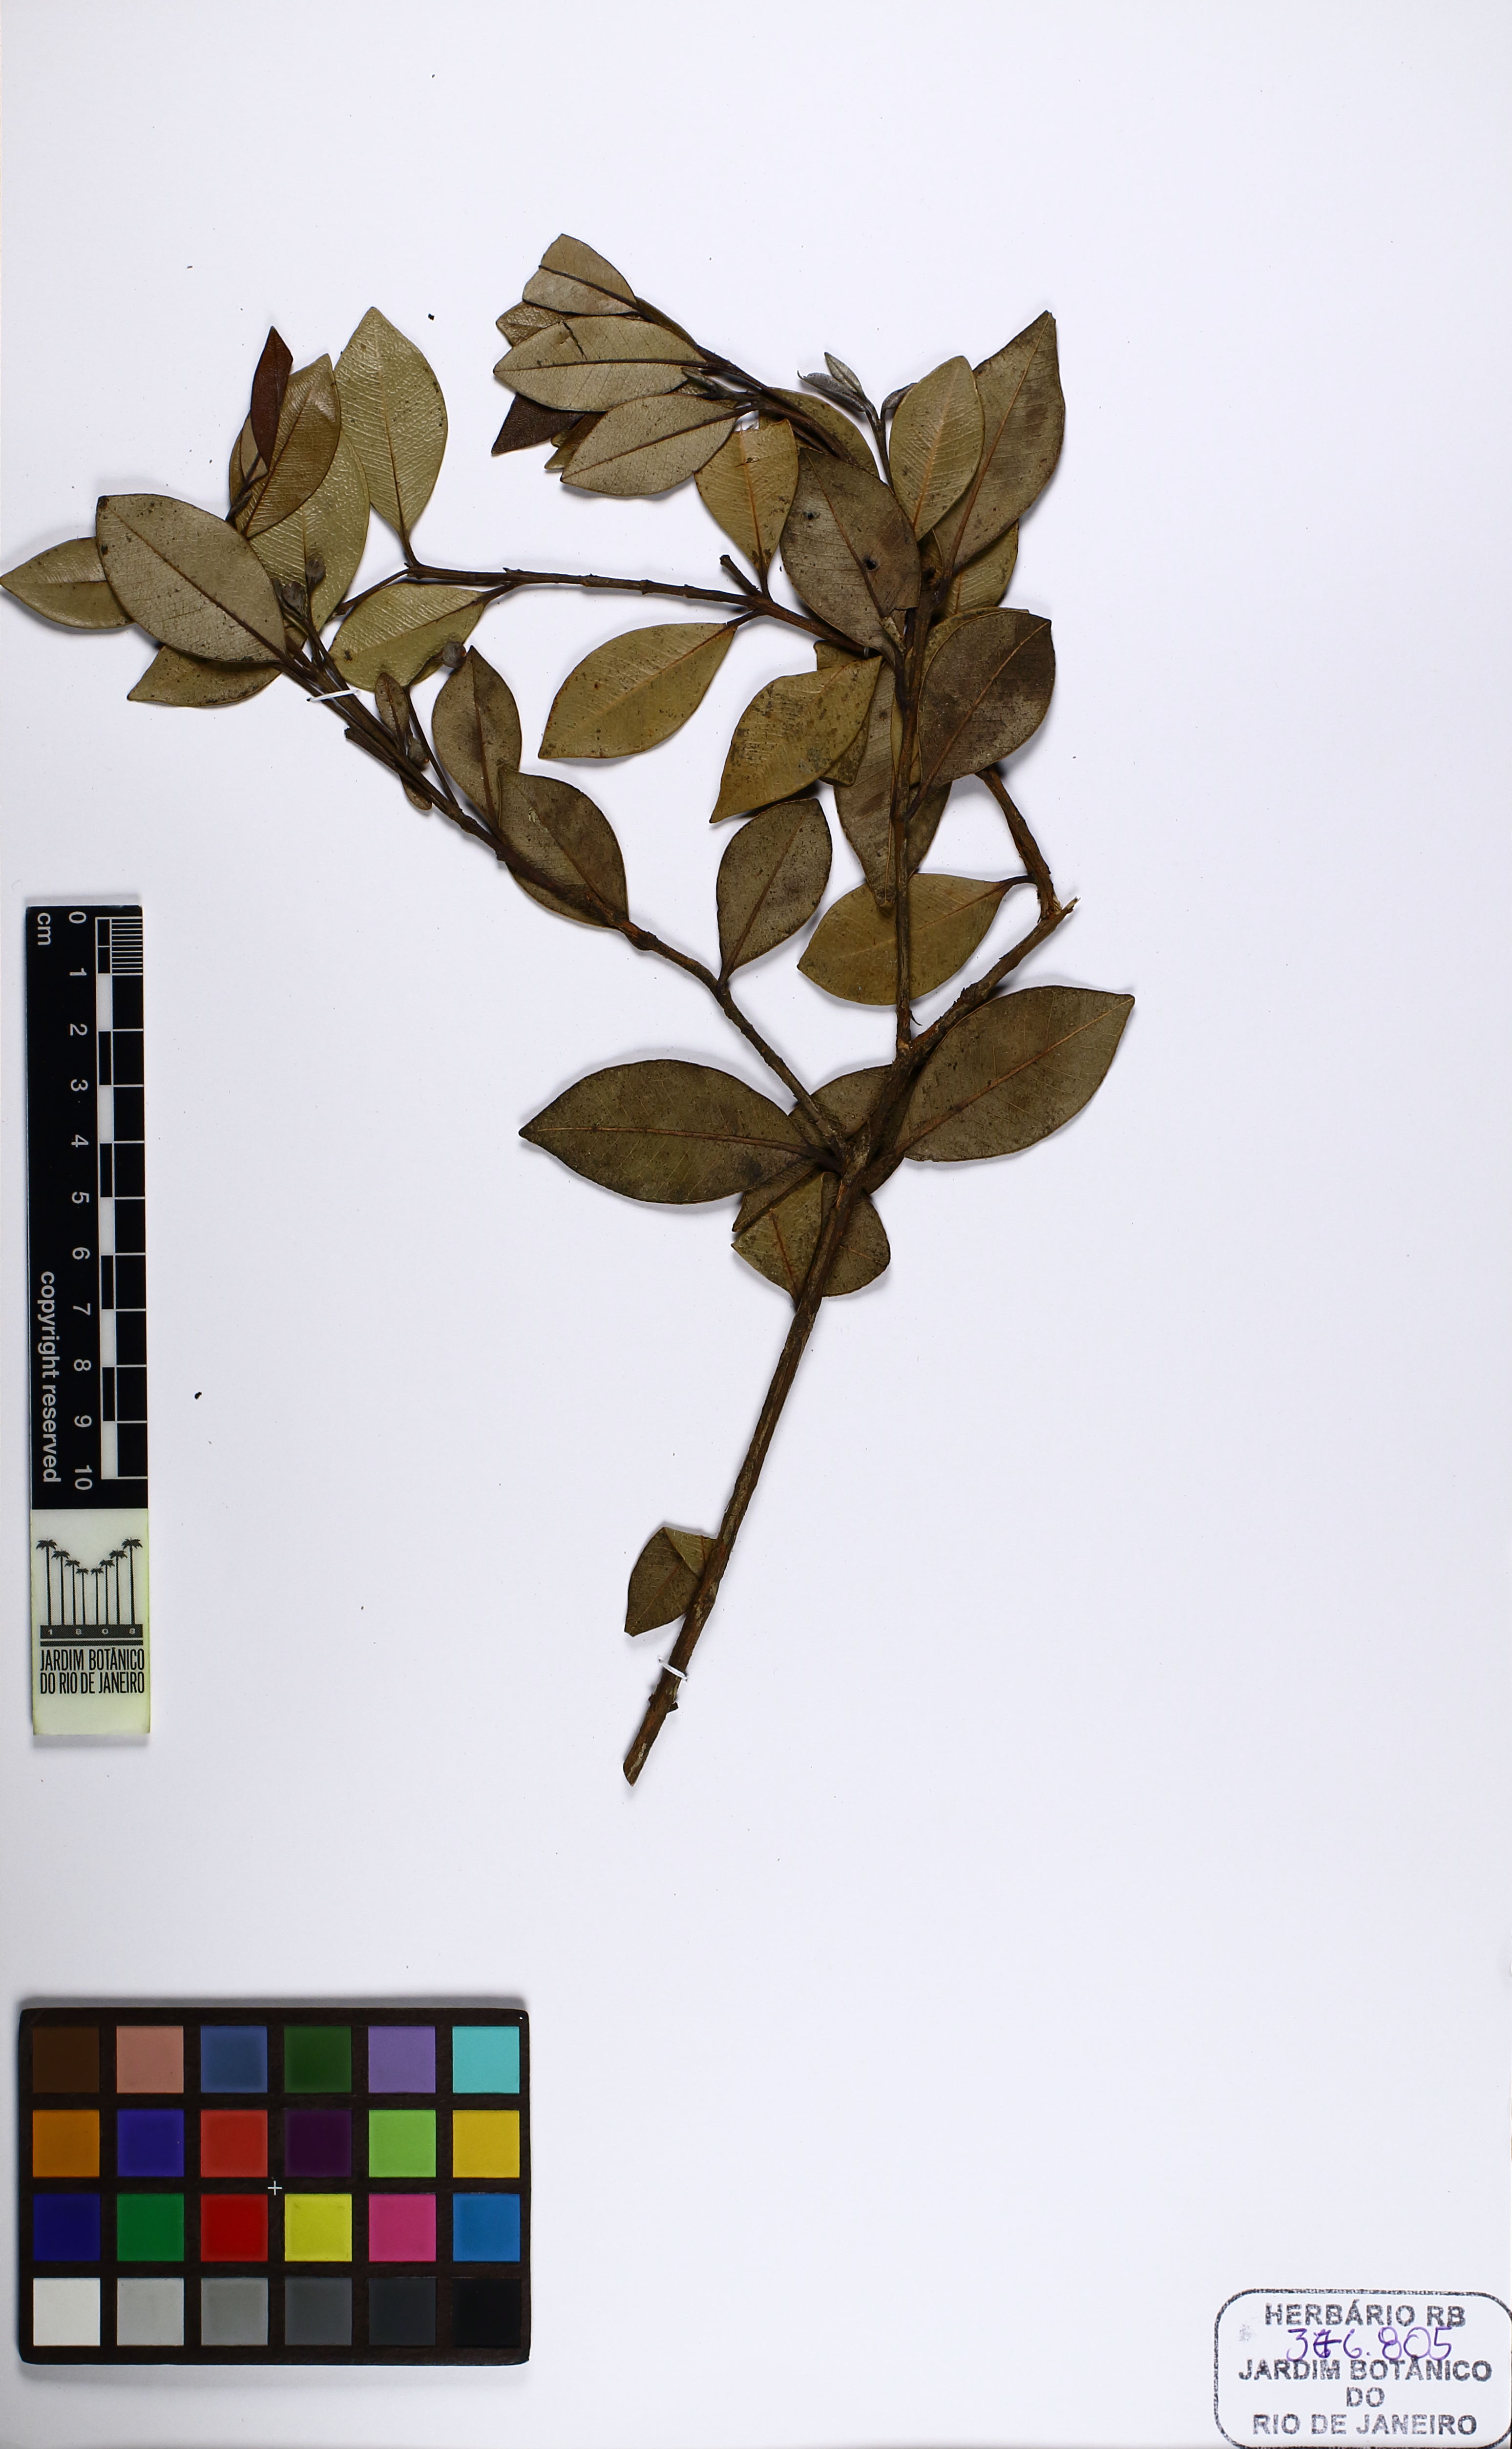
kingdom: Plantae
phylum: Tracheophyta
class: Magnoliopsida
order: Myrtales
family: Myrtaceae
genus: Pimenta
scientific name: Pimenta pseudocaryophyllus
